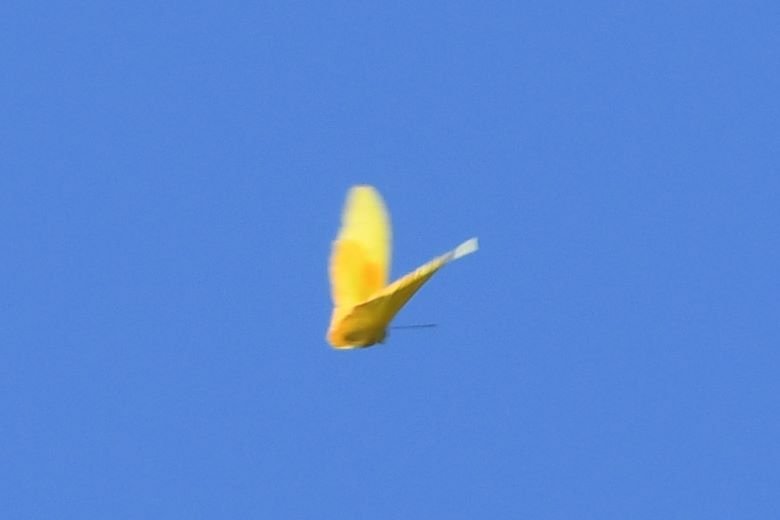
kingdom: Animalia
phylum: Arthropoda
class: Insecta
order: Lepidoptera
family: Pieridae
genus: Phoebis
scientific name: Phoebis philea
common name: Orange-barred Sulphur
